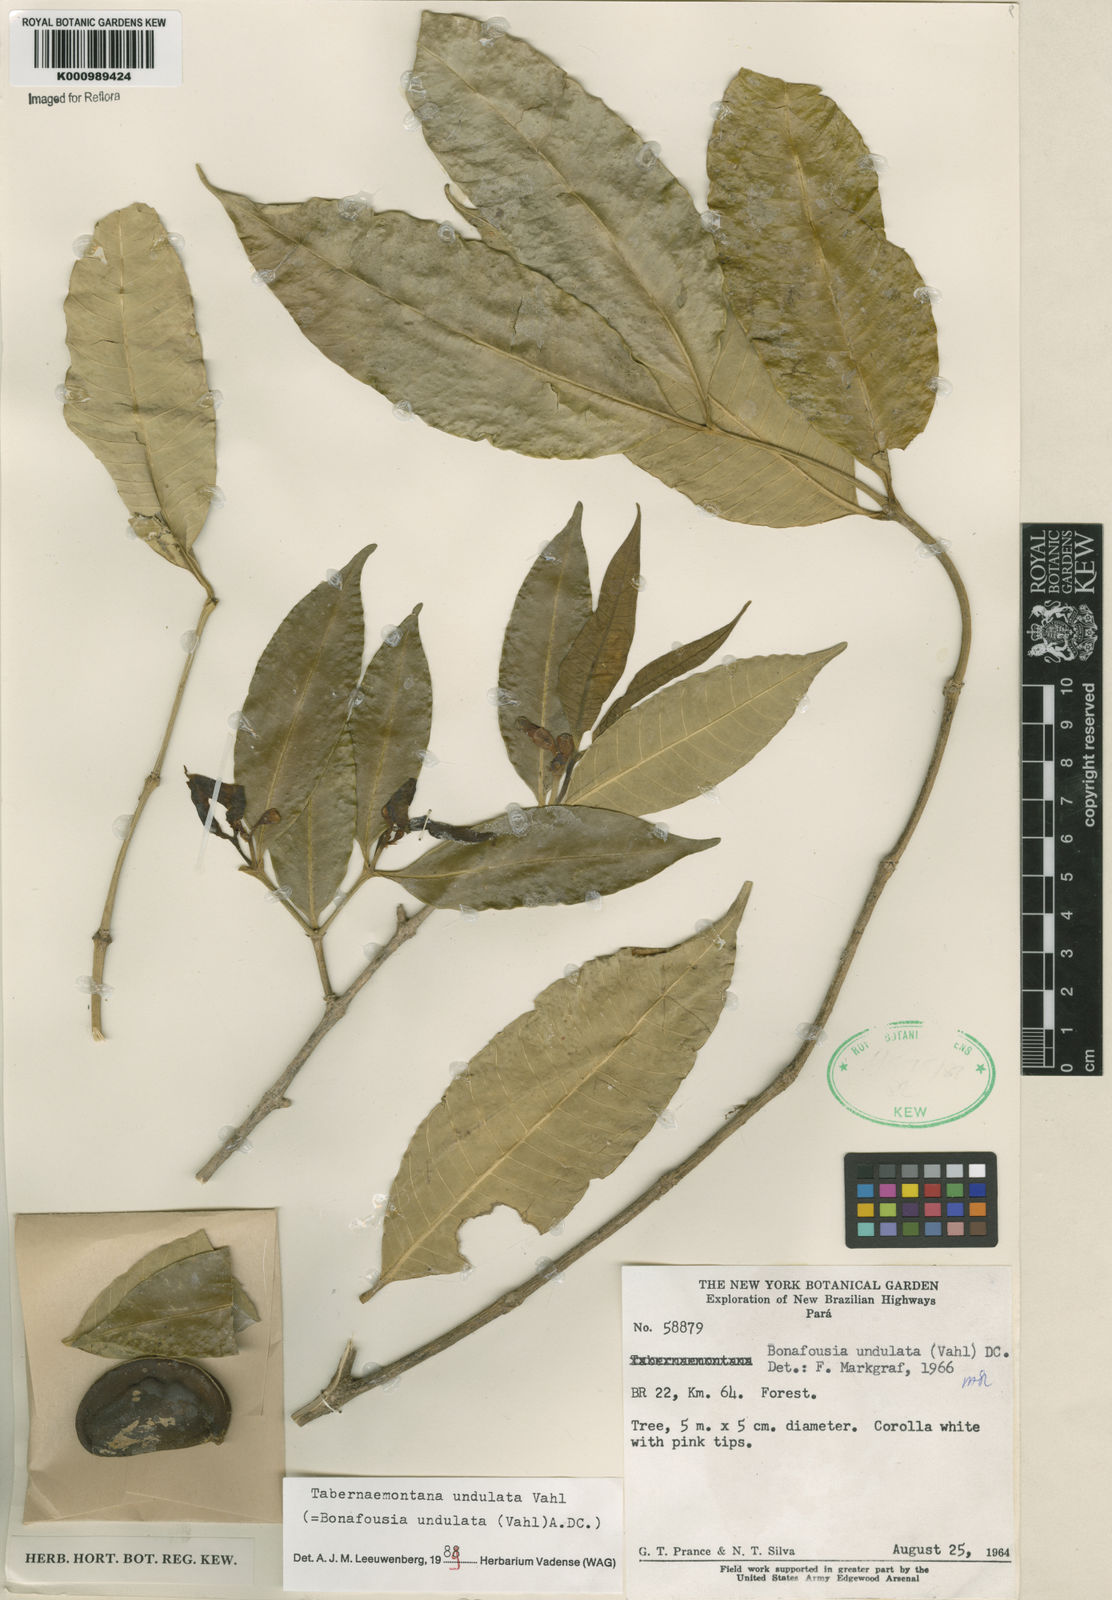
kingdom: Plantae
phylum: Tracheophyta
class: Magnoliopsida
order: Gentianales
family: Apocynaceae
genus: Tabernaemontana
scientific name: Tabernaemontana undulata
